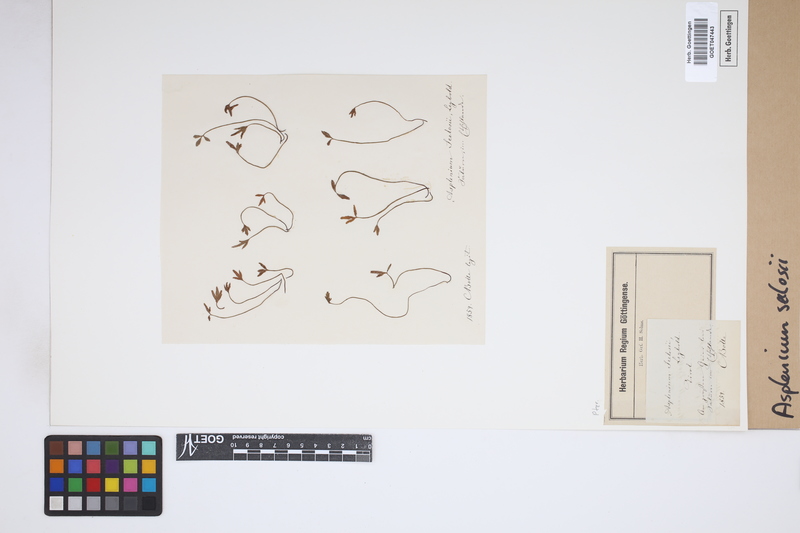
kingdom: Plantae
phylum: Tracheophyta
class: Polypodiopsida
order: Polypodiales
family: Aspleniaceae
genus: Asplenium
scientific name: Asplenium seelosii
